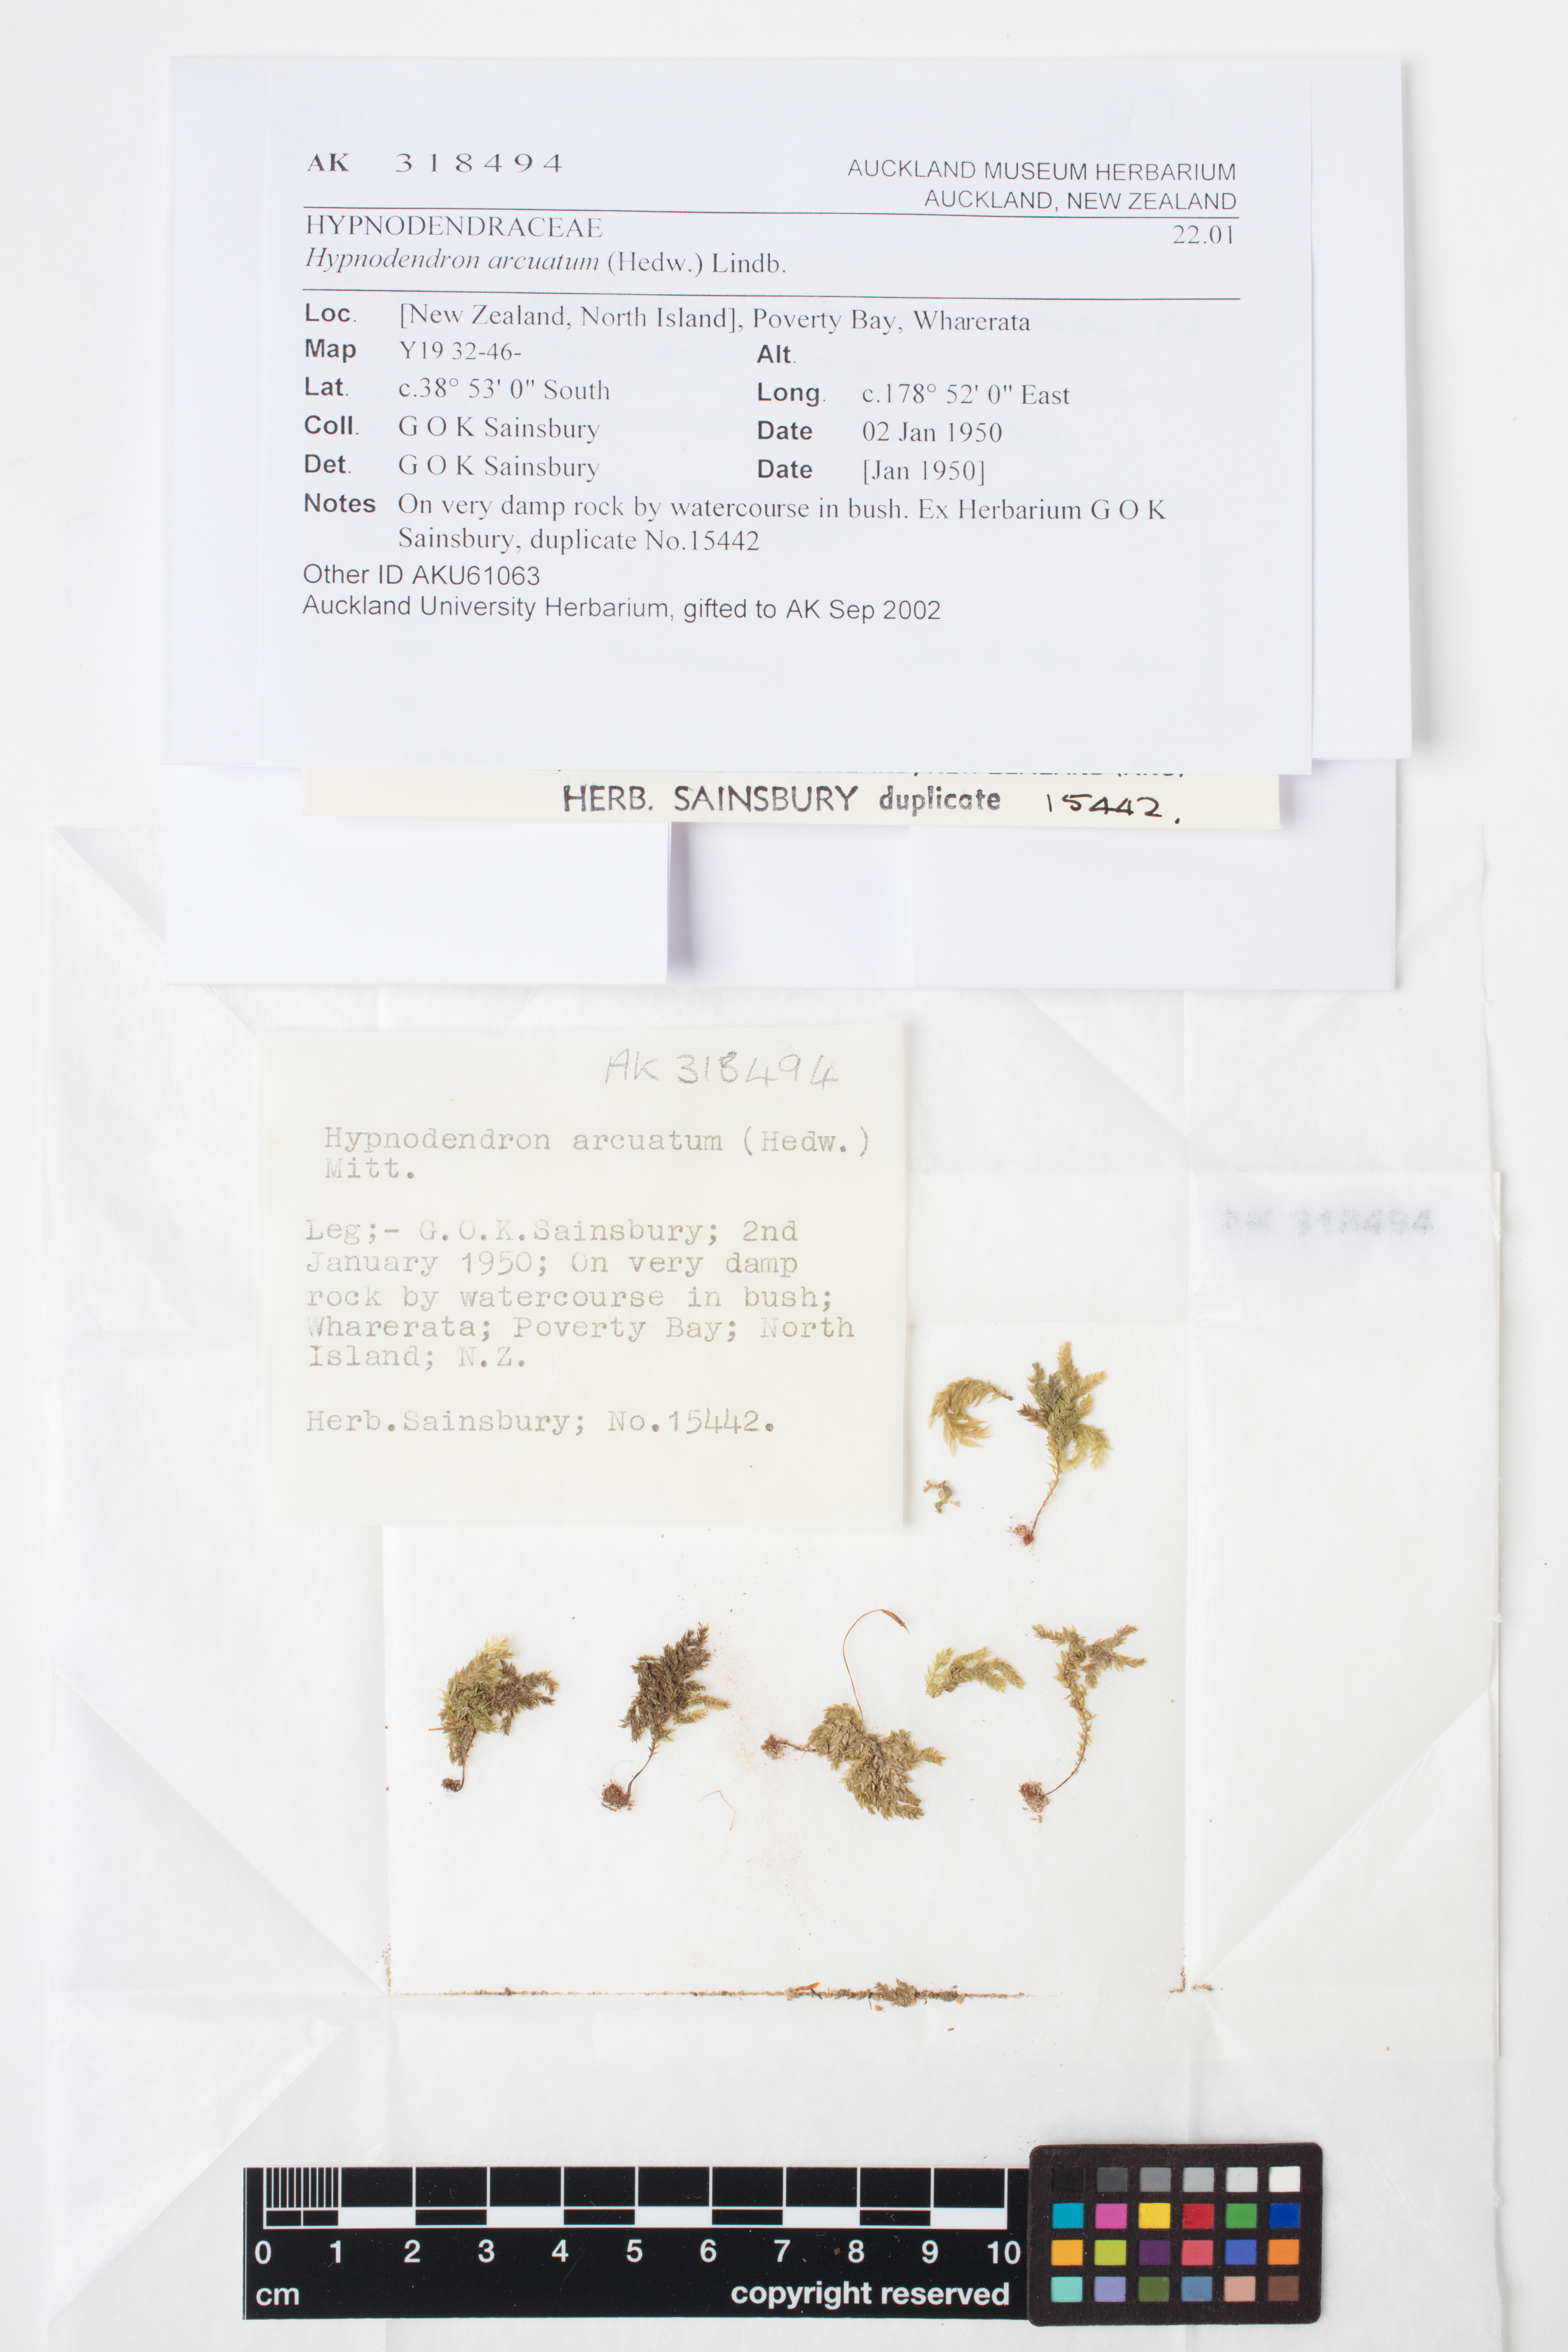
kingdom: Plantae
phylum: Bryophyta
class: Bryopsida
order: Hypnodendrales
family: Spiridentaceae
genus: Hypnodendron
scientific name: Hypnodendron arcuatum
